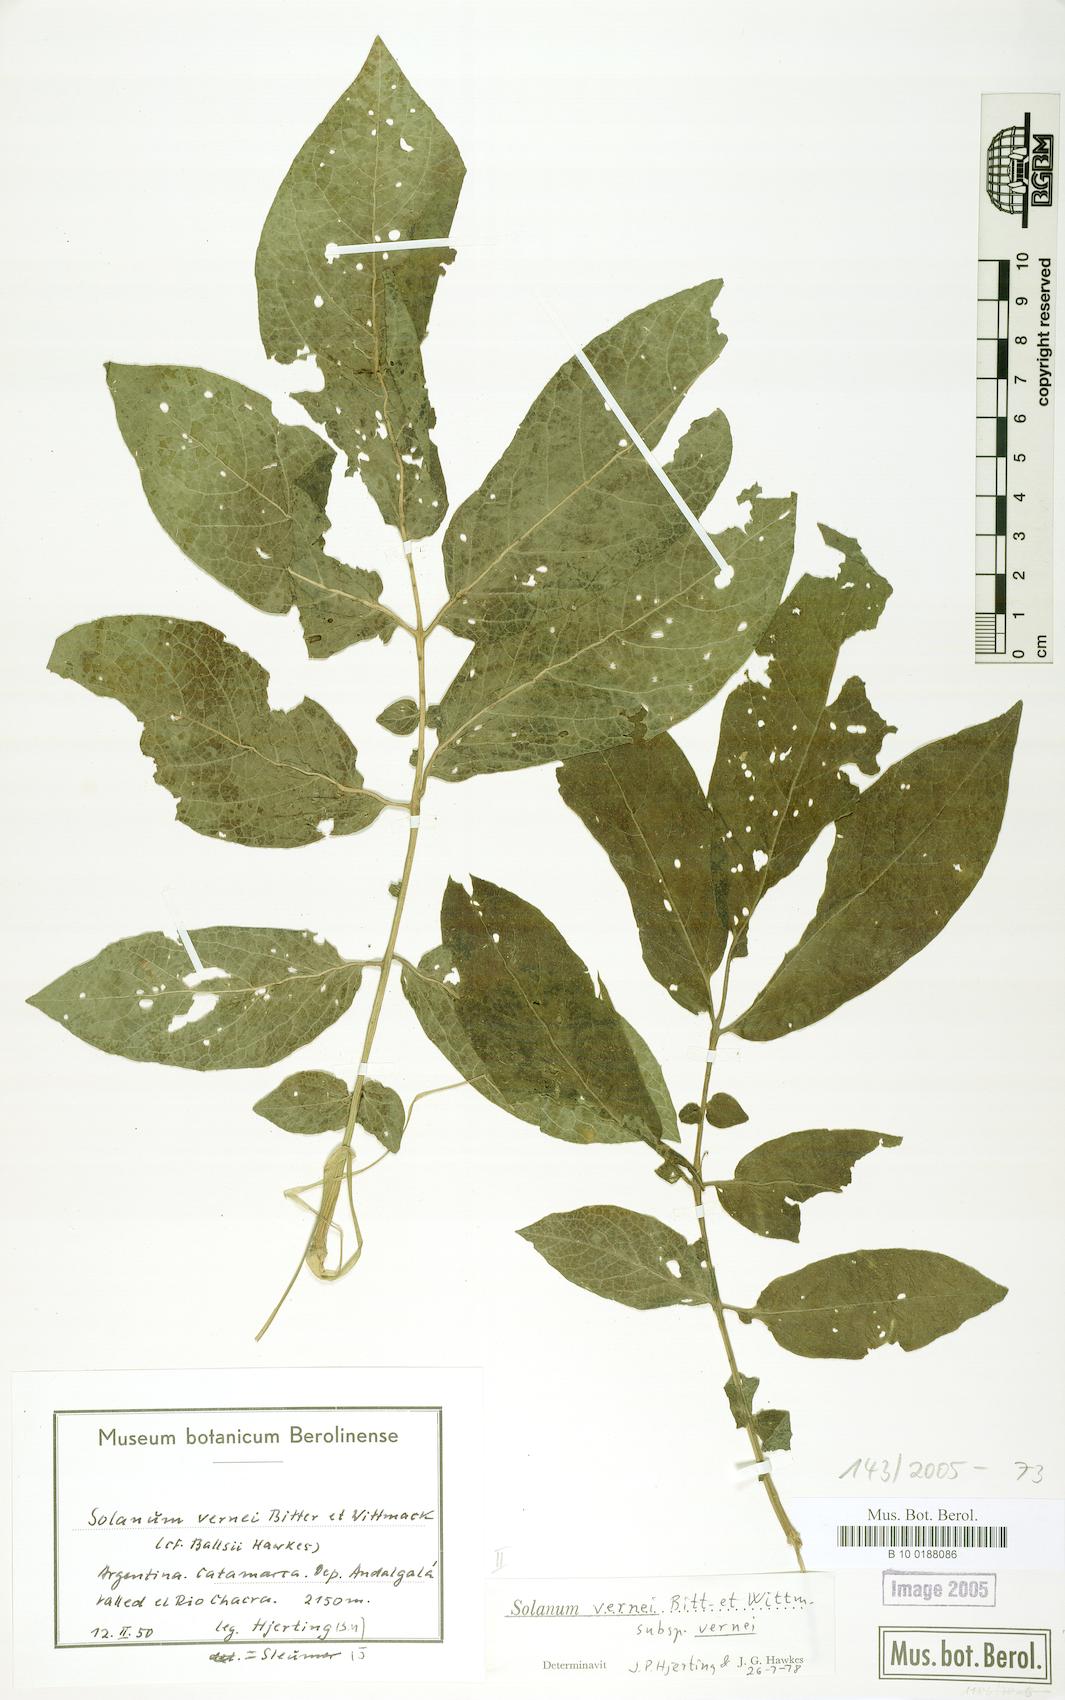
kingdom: Plantae
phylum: Tracheophyta
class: Magnoliopsida
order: Solanales
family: Solanaceae
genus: Solanum
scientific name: Solanum vernei
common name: Purple potato
